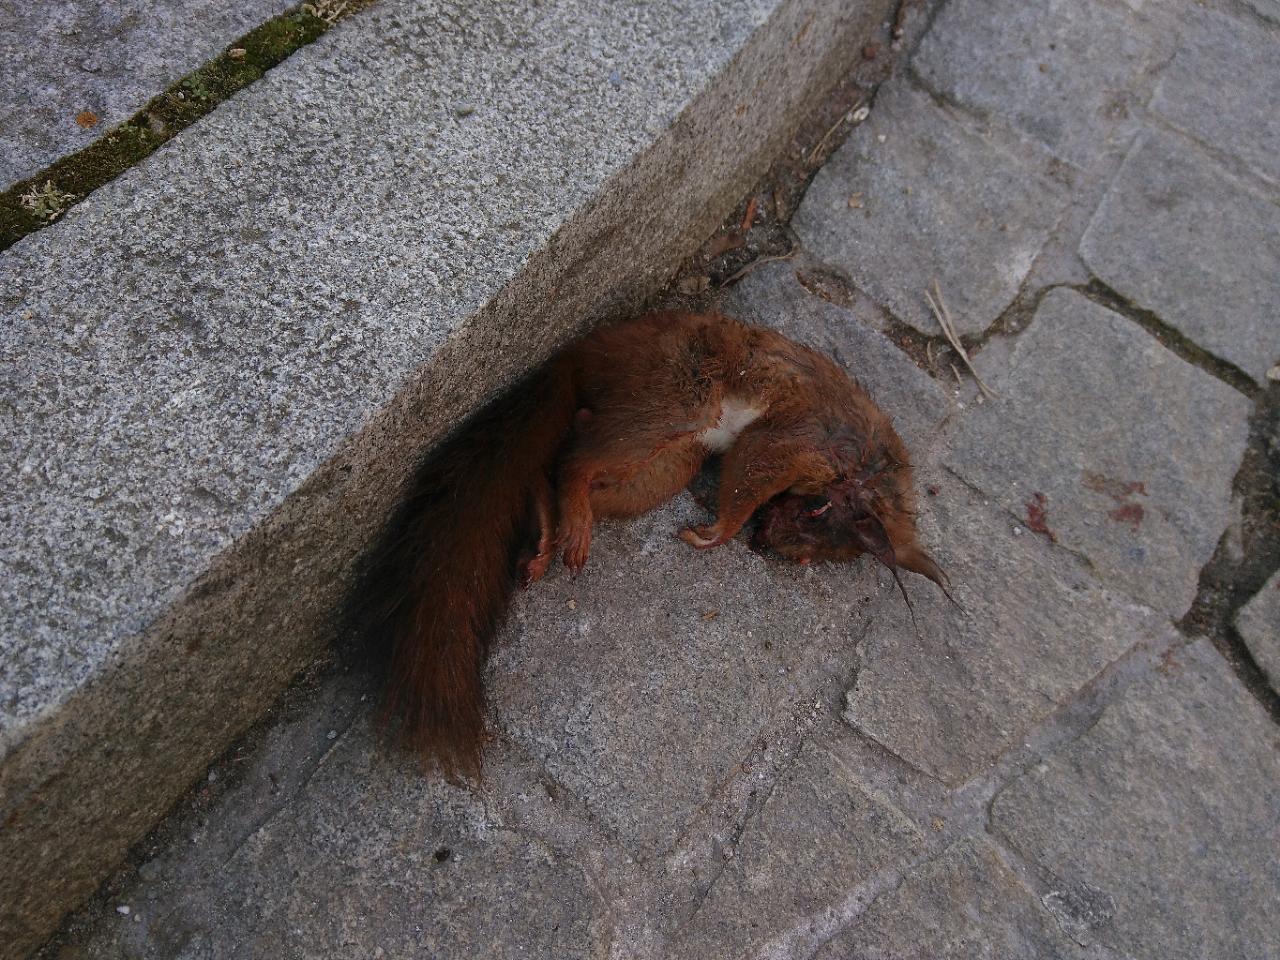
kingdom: Animalia
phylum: Chordata
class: Mammalia
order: Rodentia
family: Sciuridae
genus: Sciurus
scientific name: Sciurus vulgaris
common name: Eurasian red squirrel
